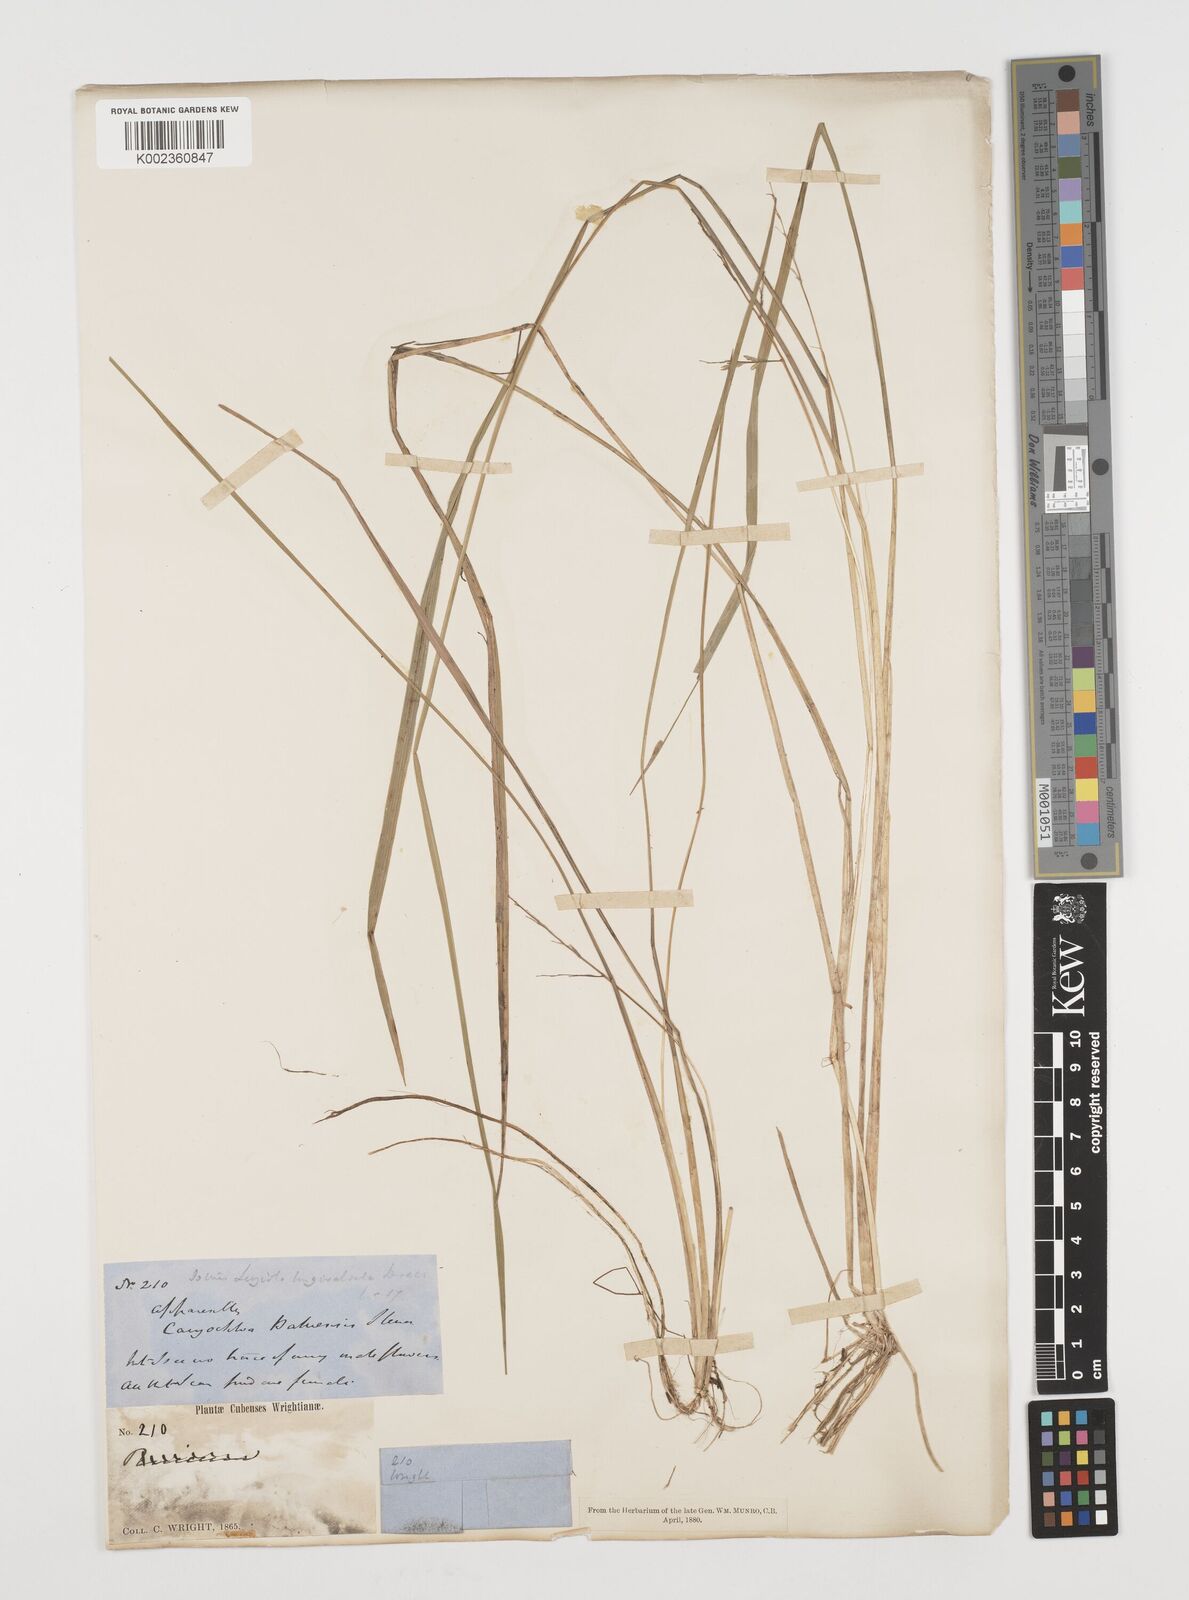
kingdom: Plantae
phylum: Tracheophyta
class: Liliopsida
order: Poales
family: Poaceae
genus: Luziola
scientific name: Luziola bahiensis
